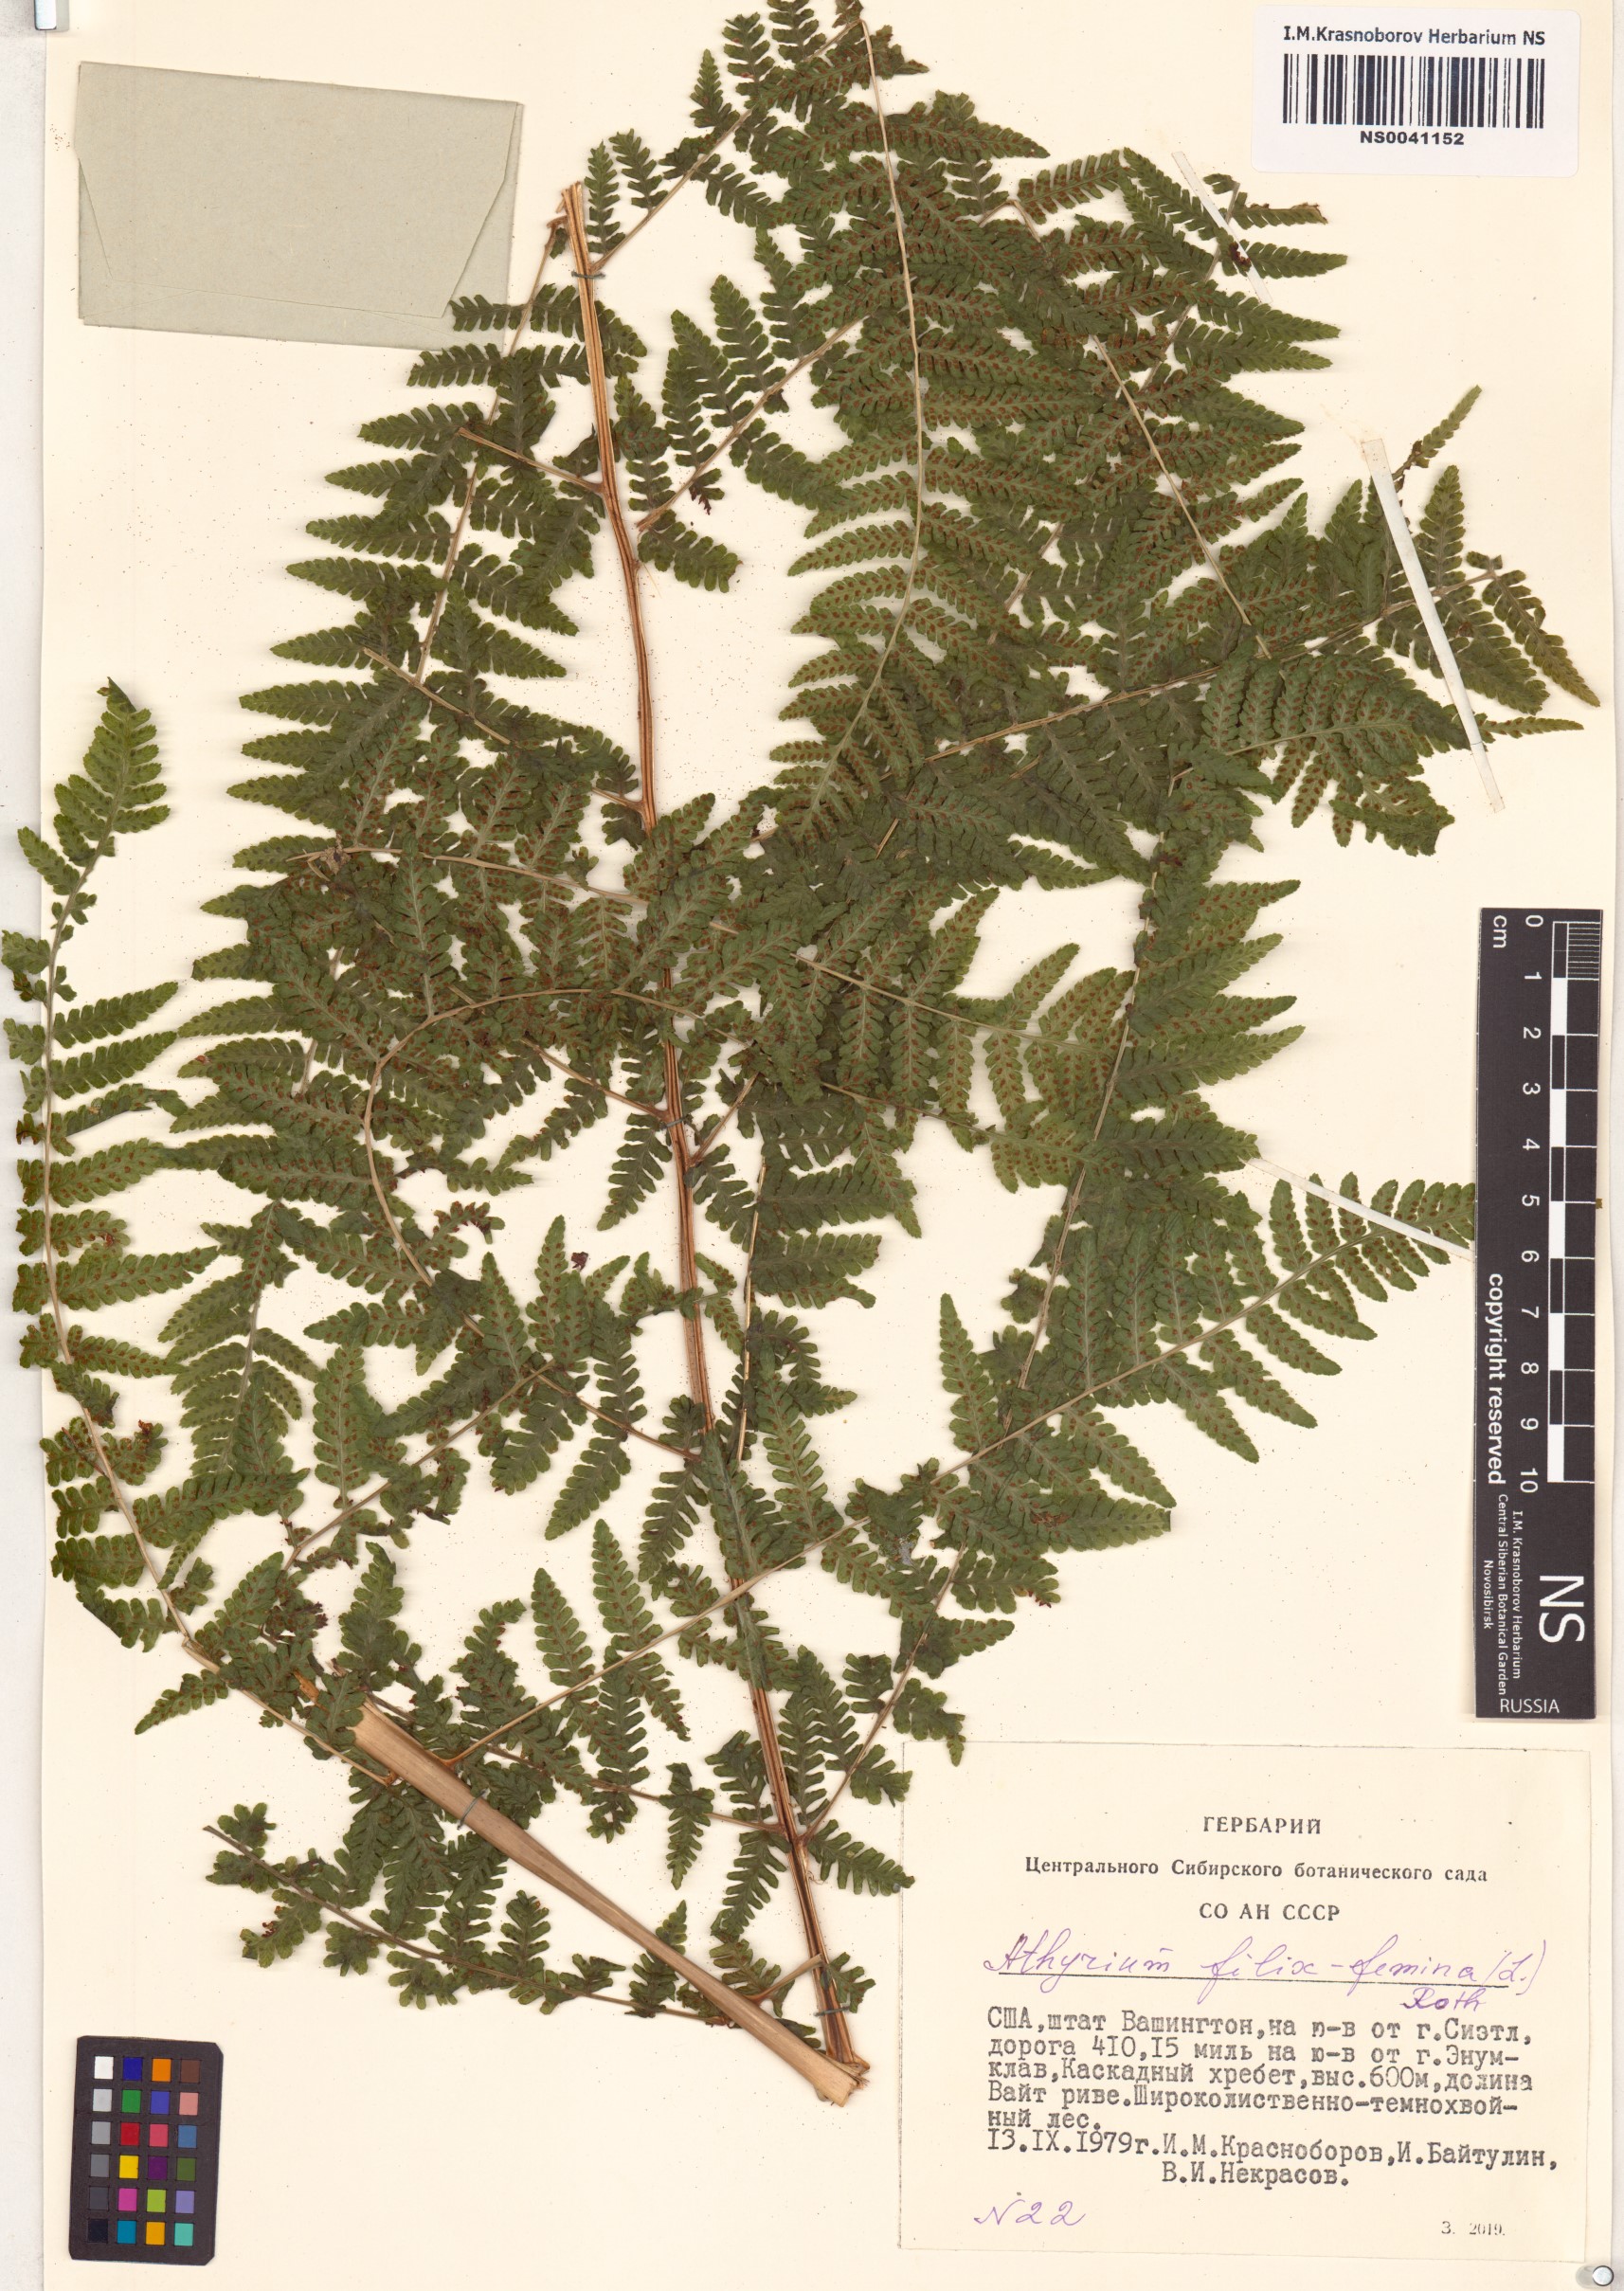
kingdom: Plantae
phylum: Tracheophyta
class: Polypodiopsida
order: Polypodiales
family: Athyriaceae
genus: Athyrium
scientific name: Athyrium filix-femina
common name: Lady fern
